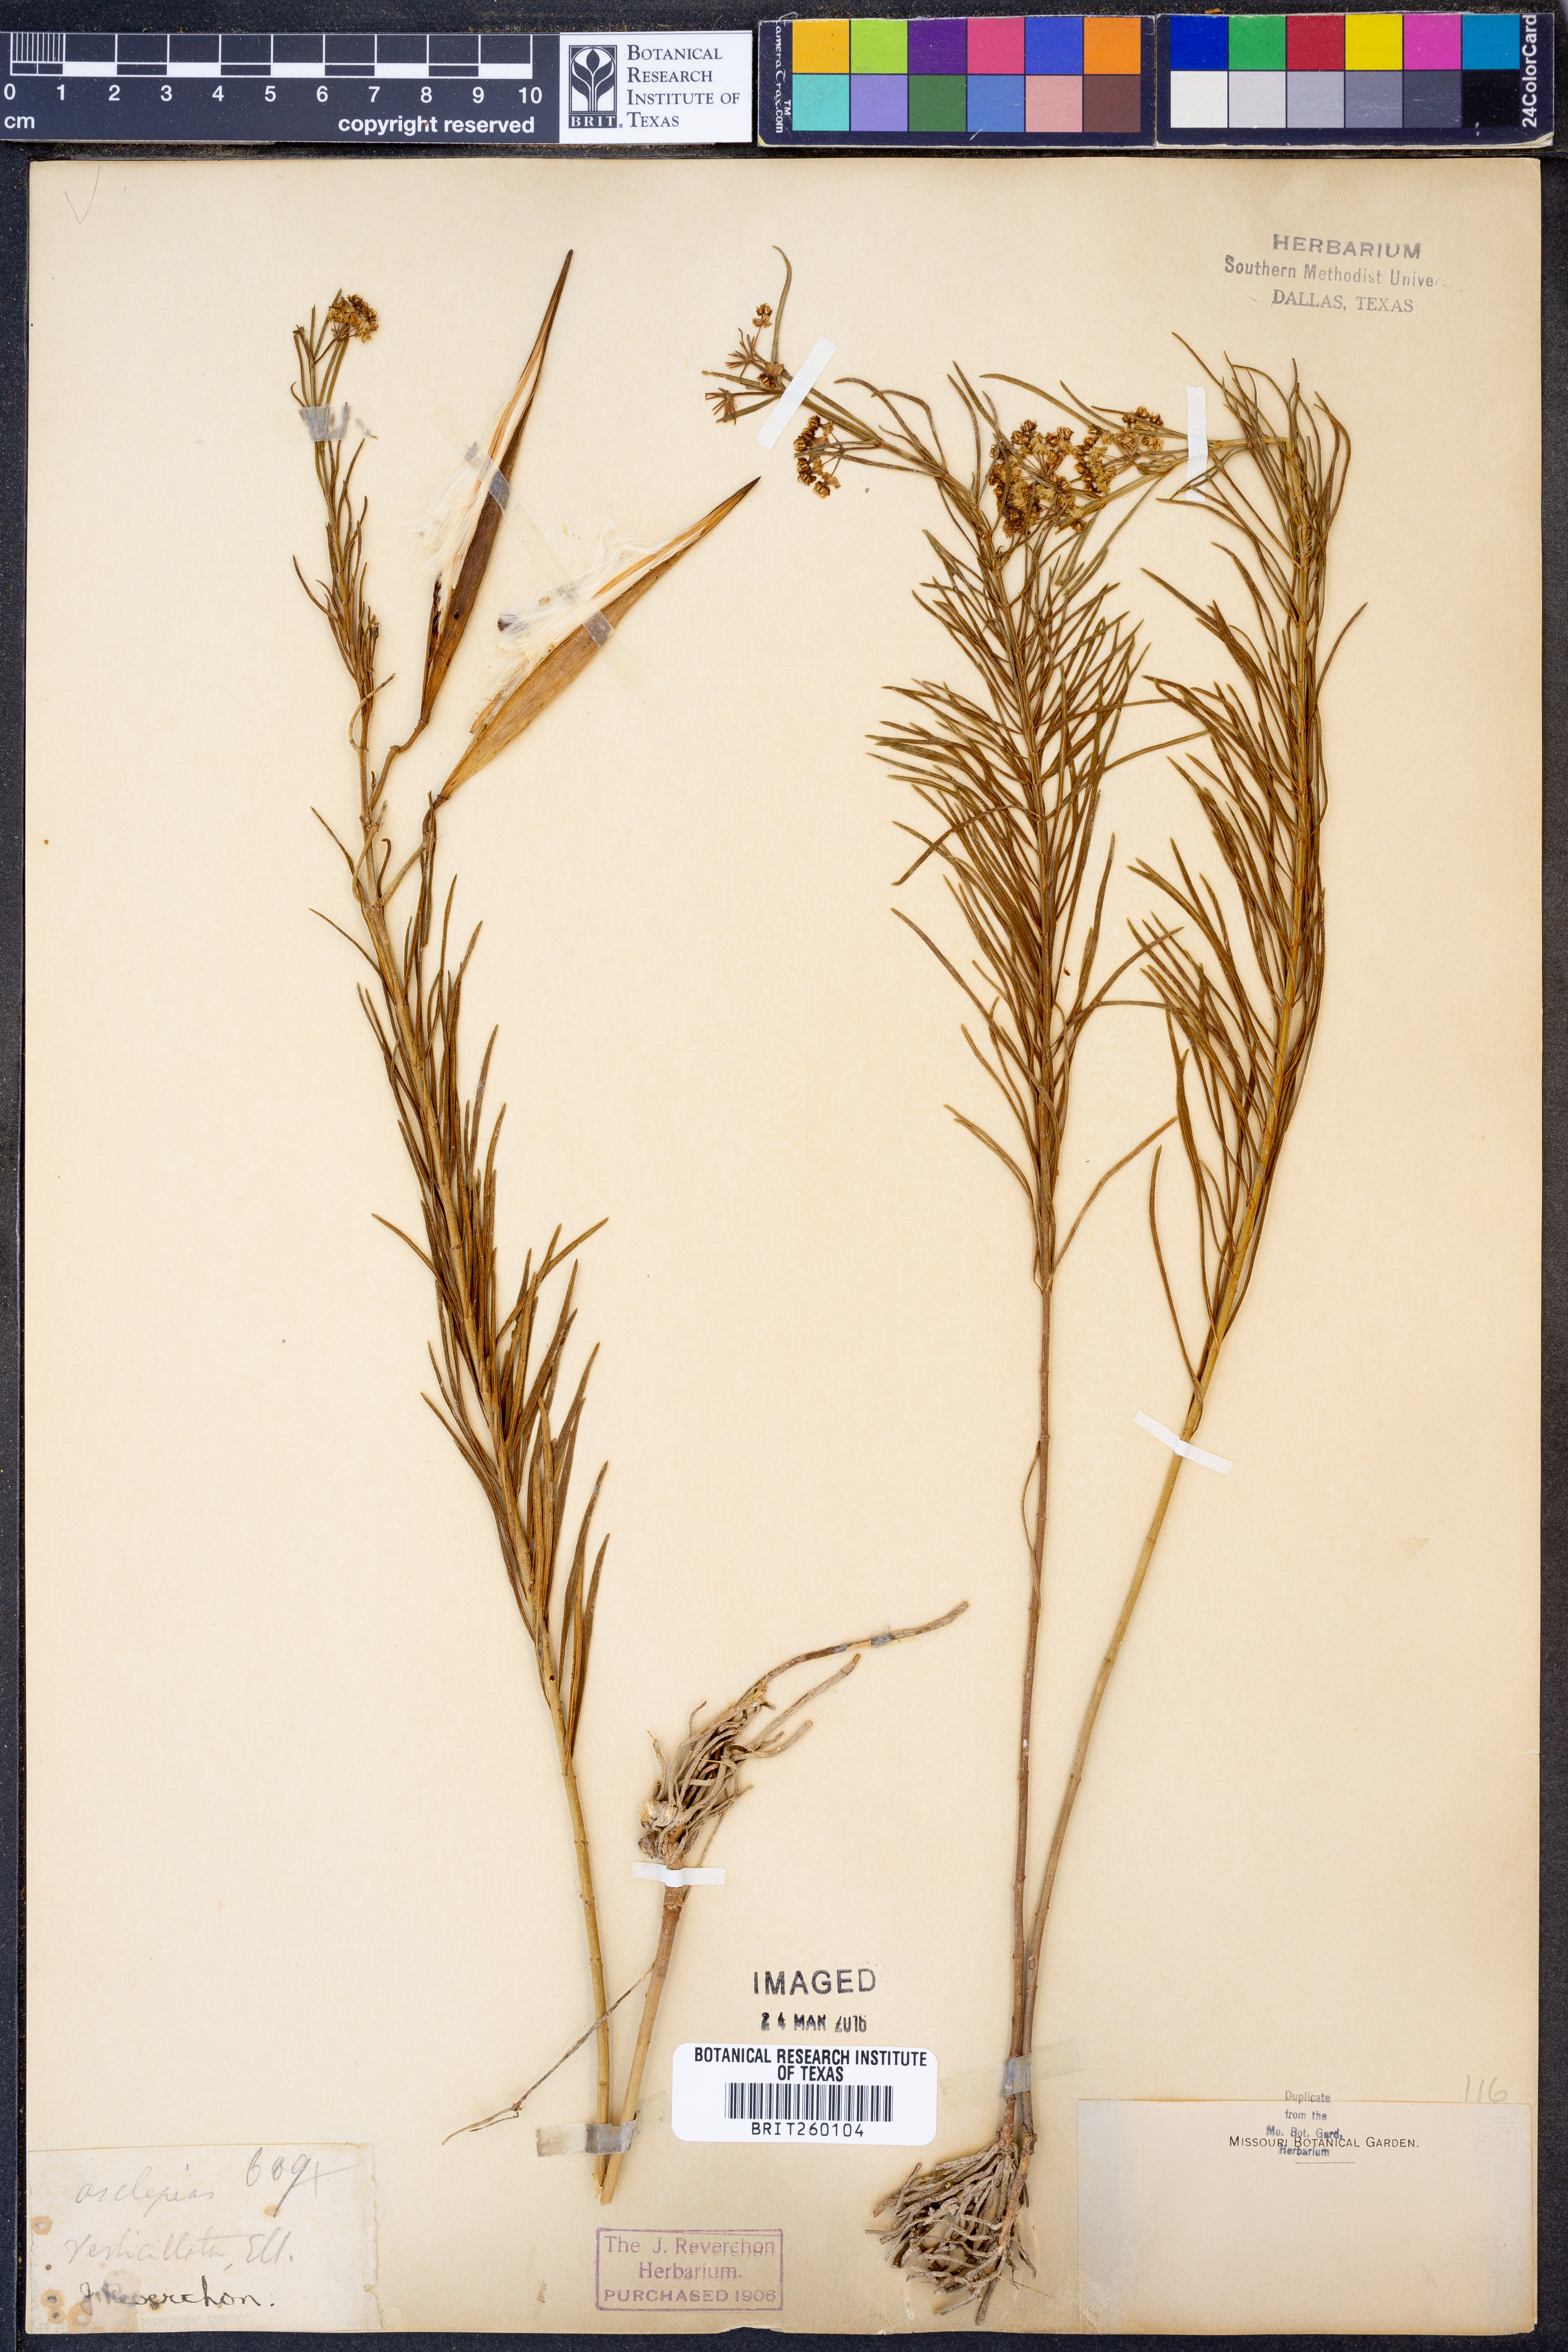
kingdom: Plantae
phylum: Tracheophyta
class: Magnoliopsida
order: Gentianales
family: Apocynaceae
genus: Asclepias
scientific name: Asclepias verticillata
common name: Eastern whorled milkweed
